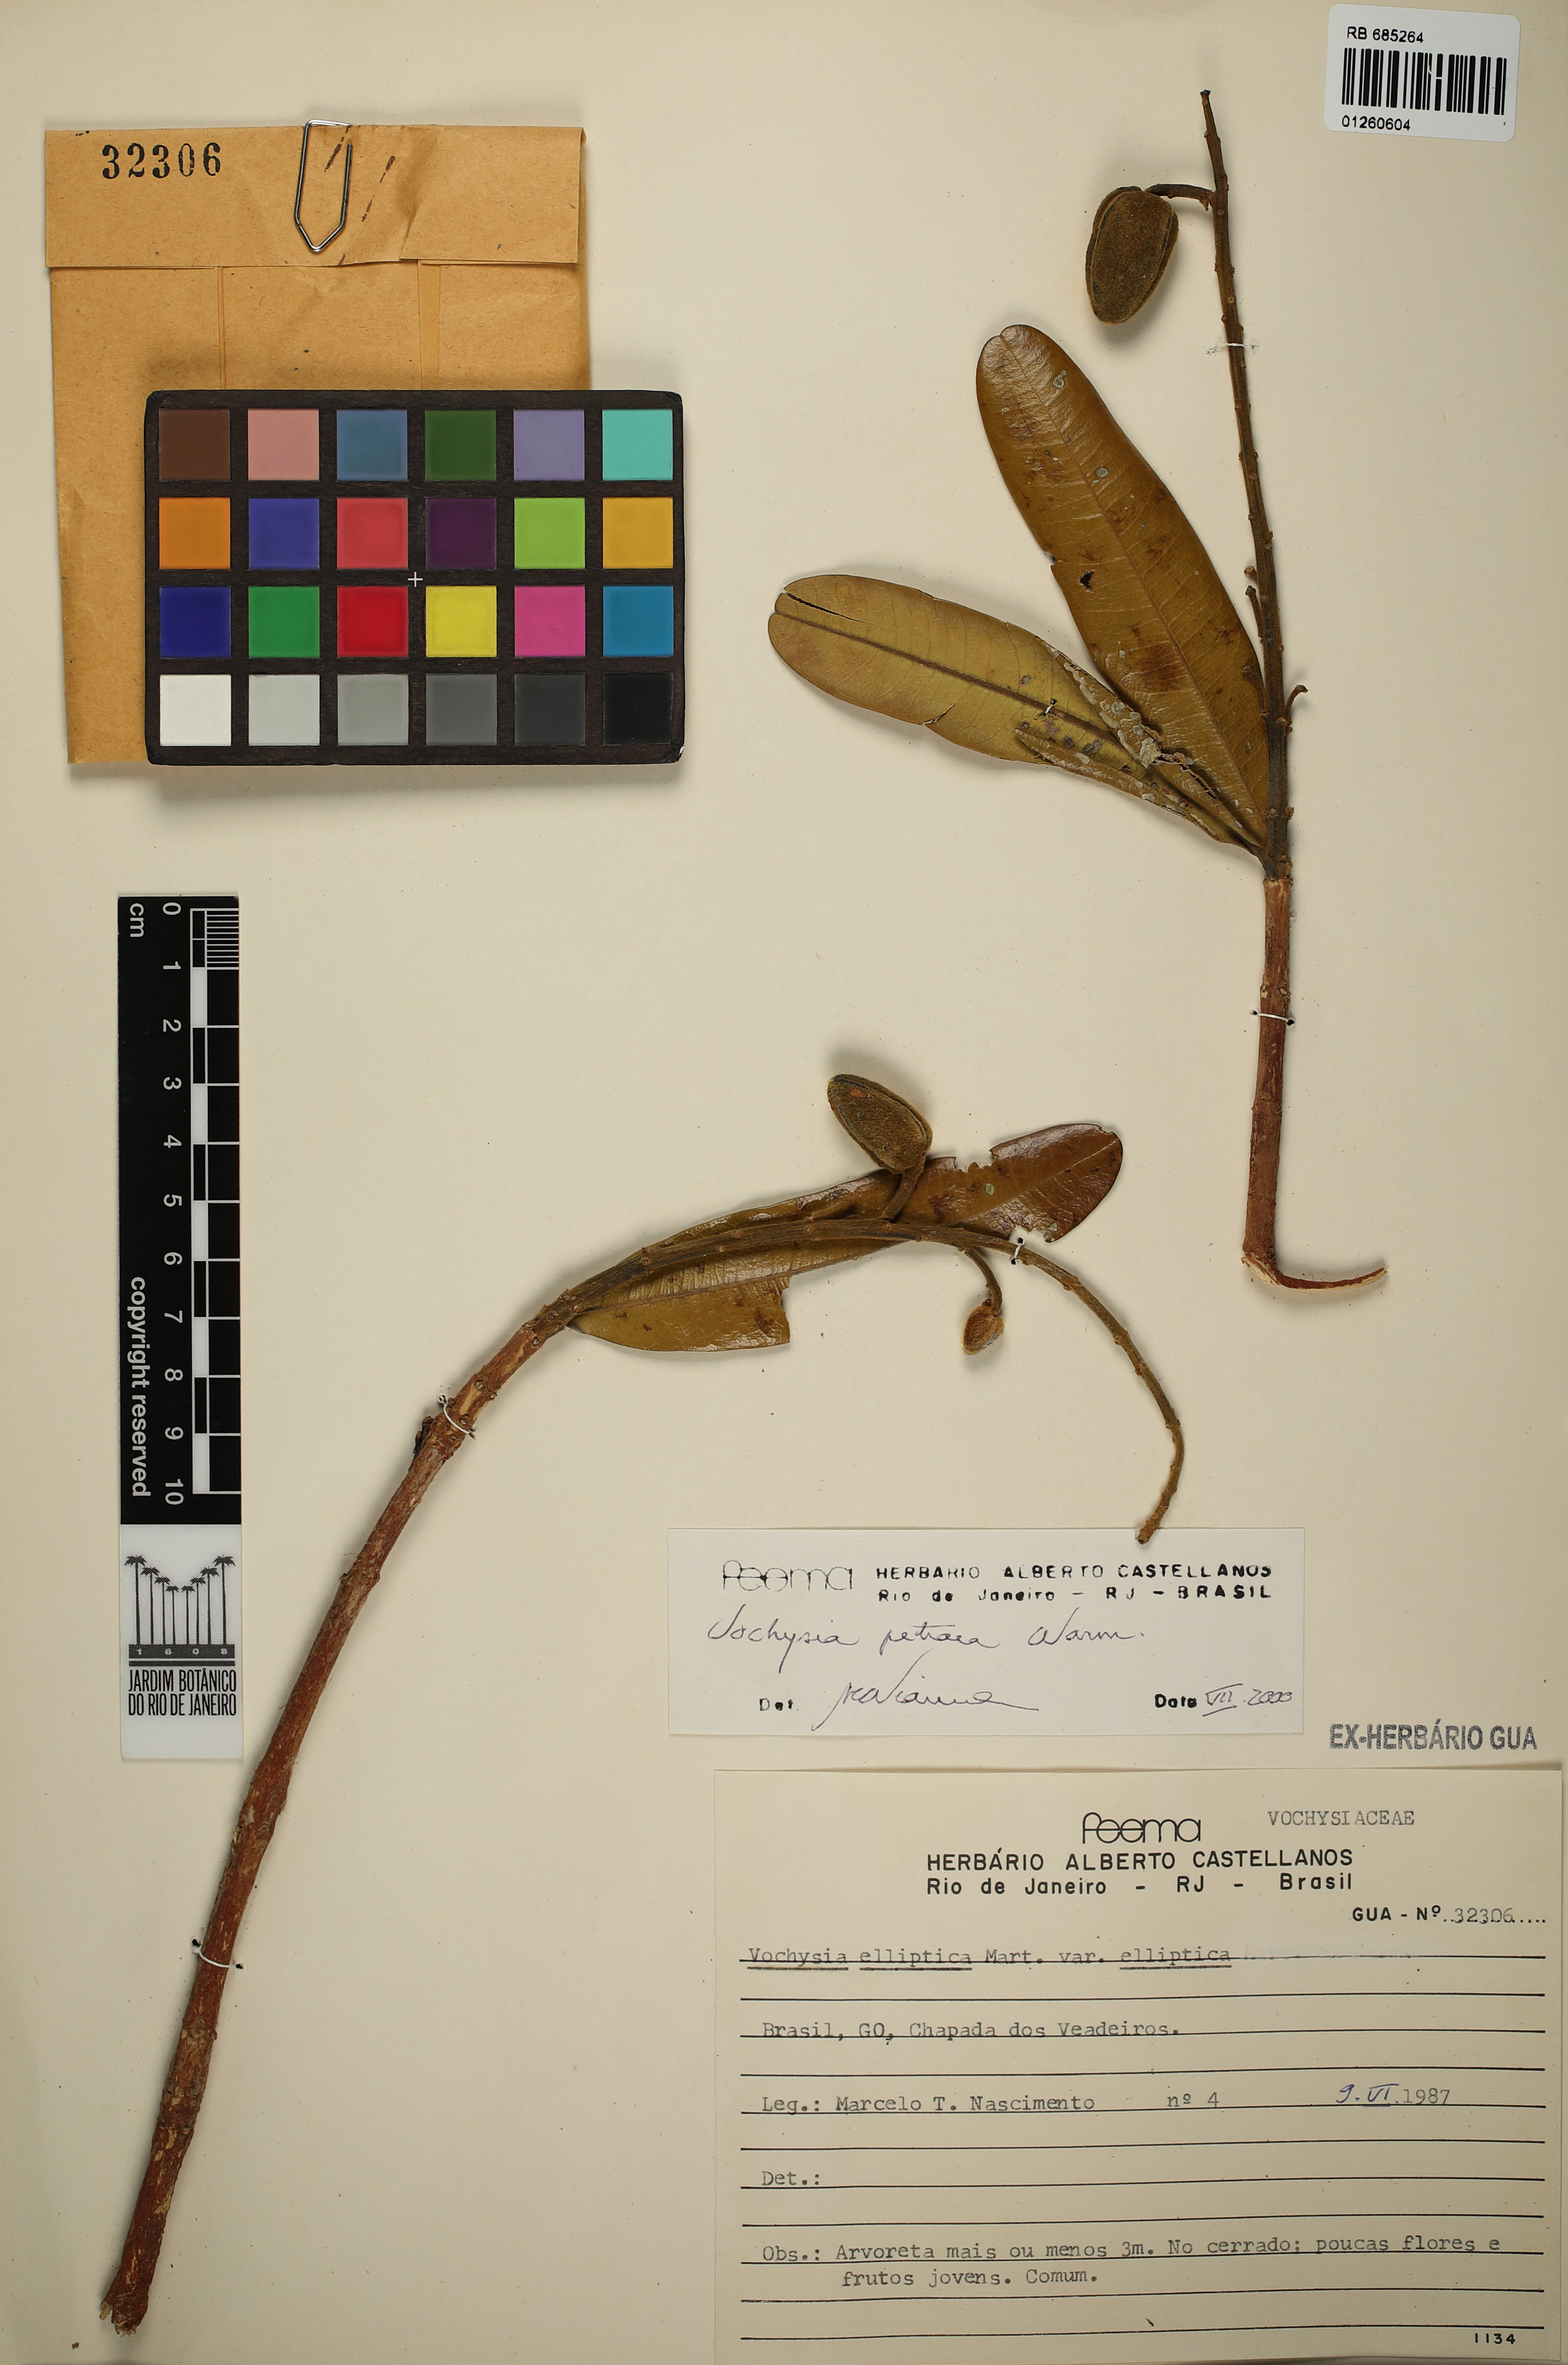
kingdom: Plantae
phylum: Tracheophyta
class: Magnoliopsida
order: Myrtales
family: Vochysiaceae
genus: Vochysia
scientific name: Vochysia petraea
